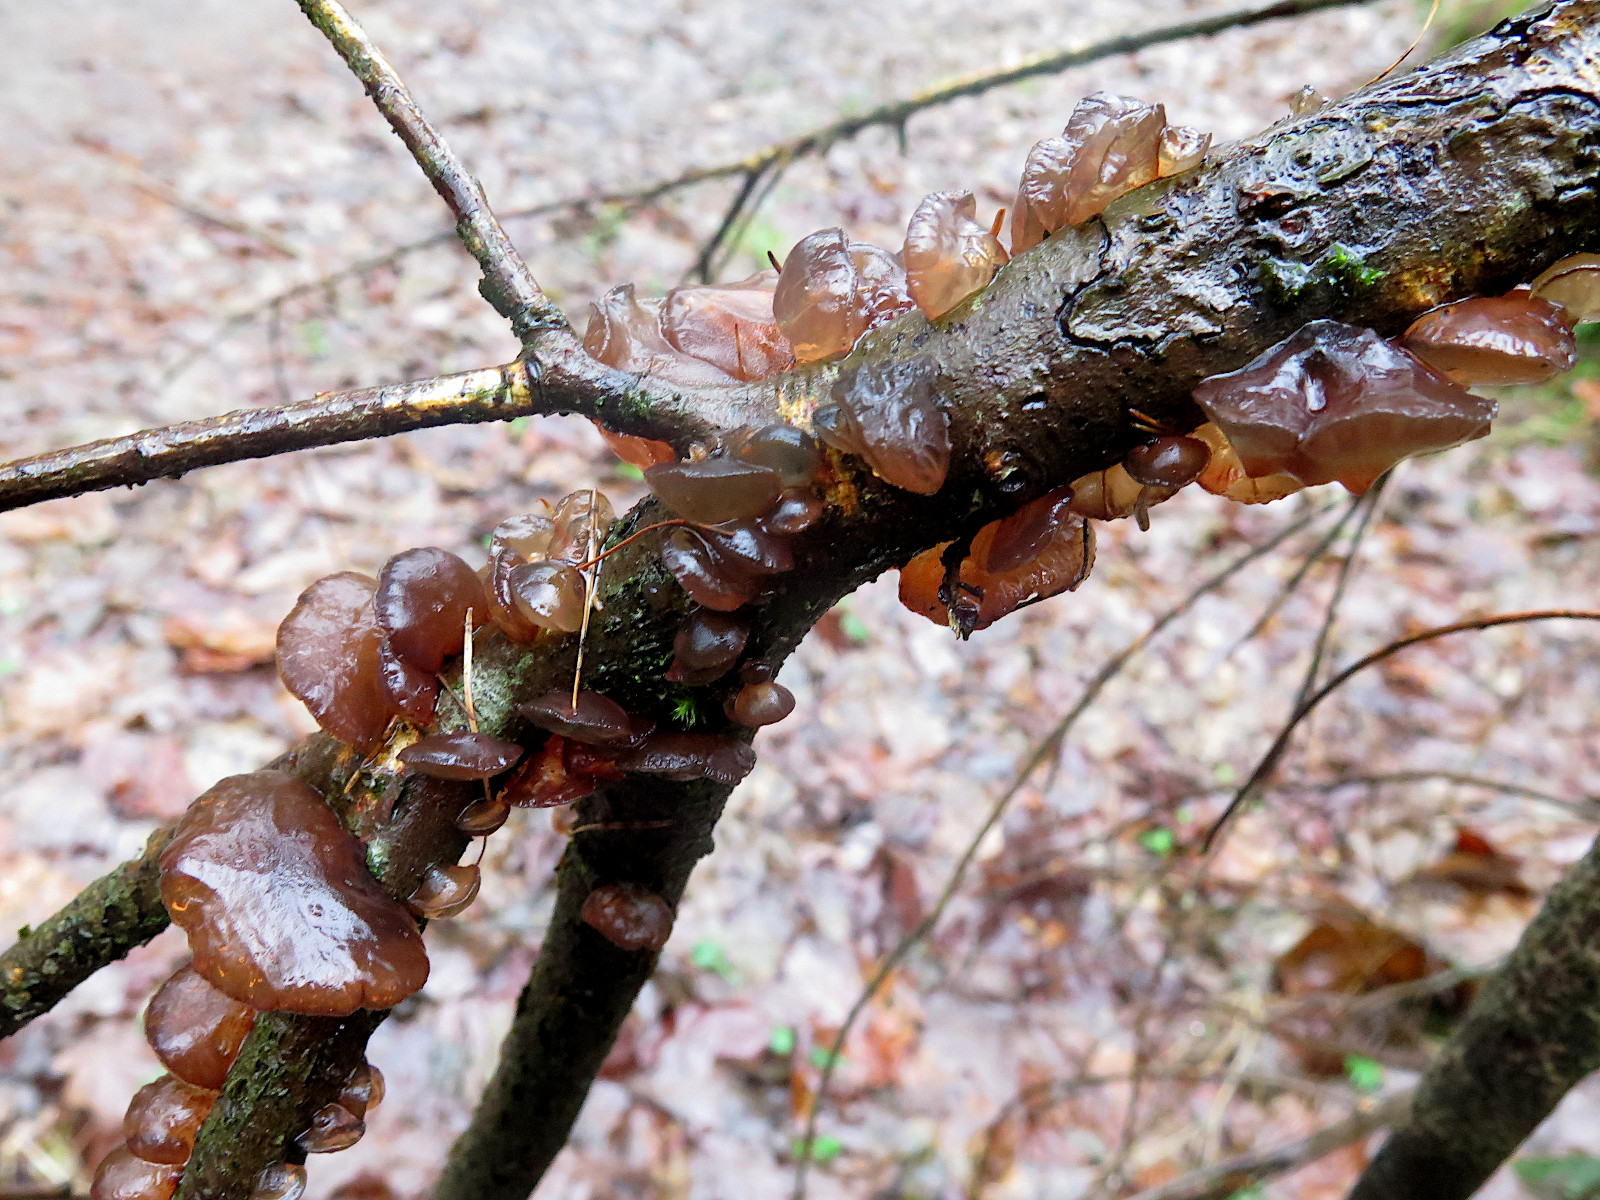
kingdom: Fungi
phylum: Basidiomycota
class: Agaricomycetes
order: Auriculariales
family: Auriculariaceae
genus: Exidia
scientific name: Exidia recisa
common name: pile-bævretop
